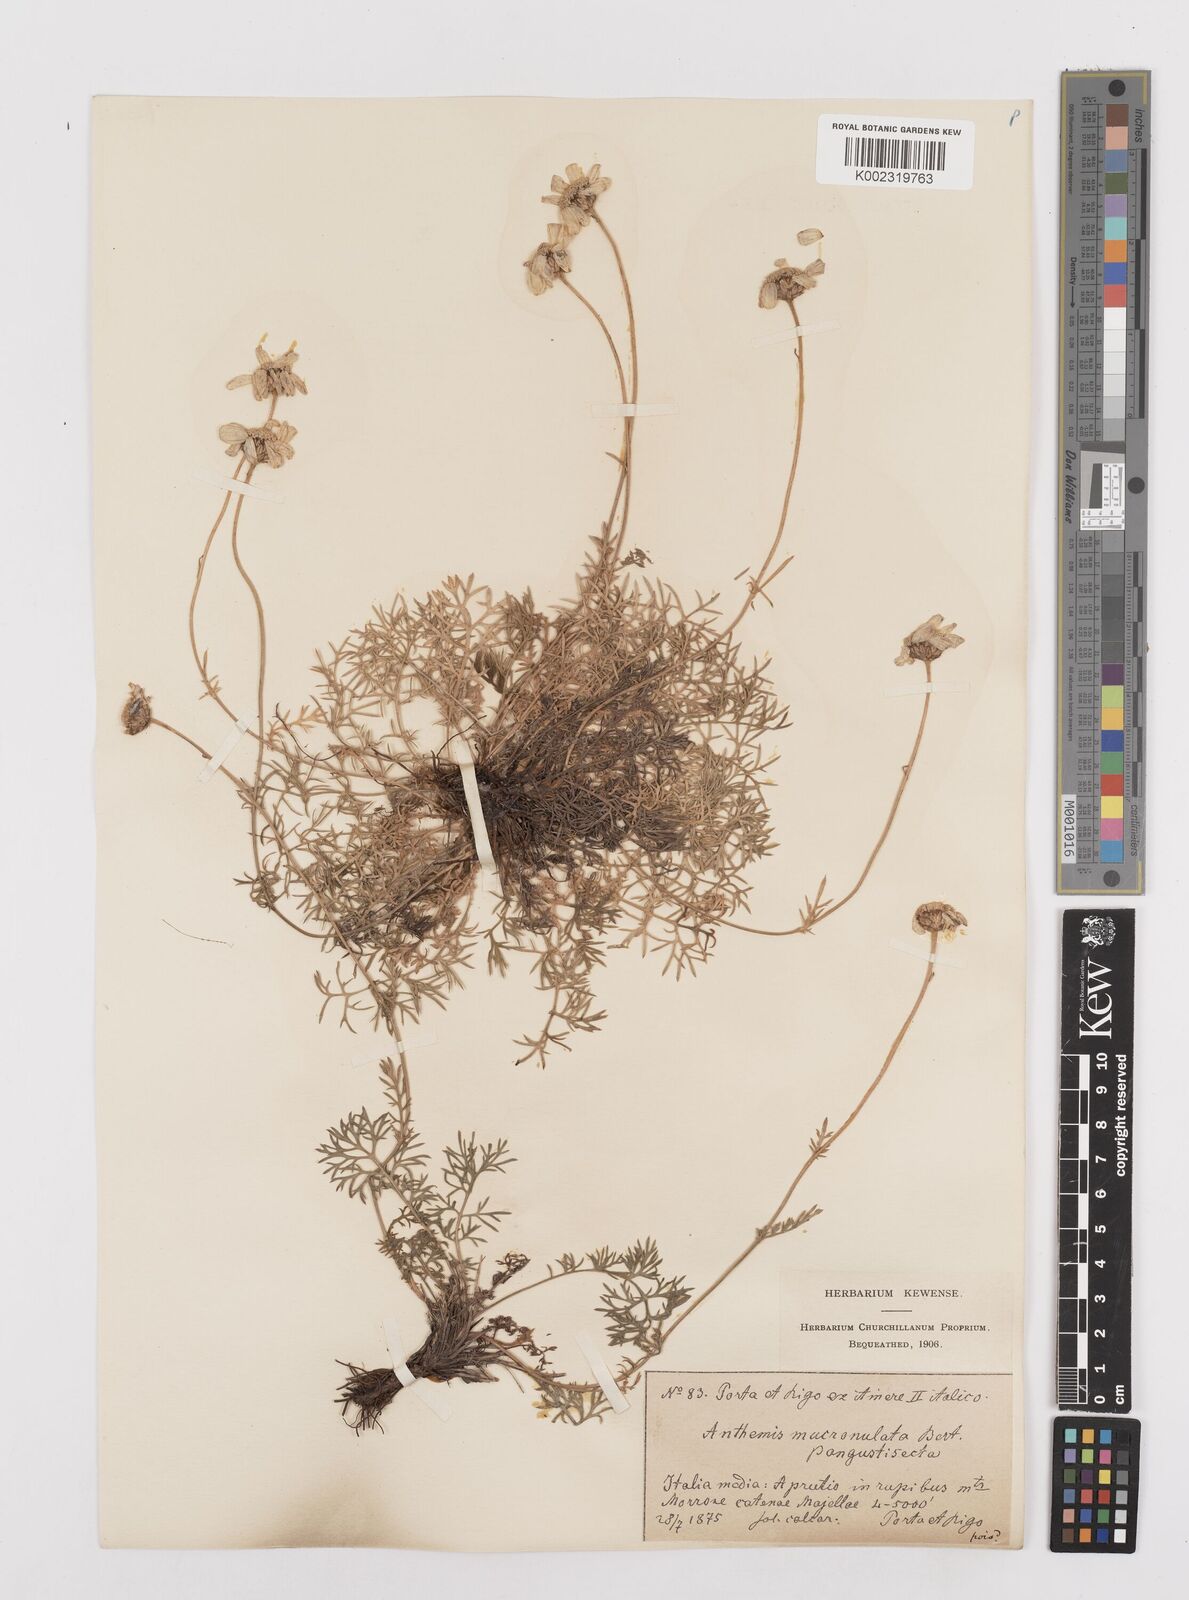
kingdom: Plantae
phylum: Tracheophyta
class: Magnoliopsida
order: Asterales
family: Asteraceae
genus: Achillea
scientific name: Achillea barrelieri
